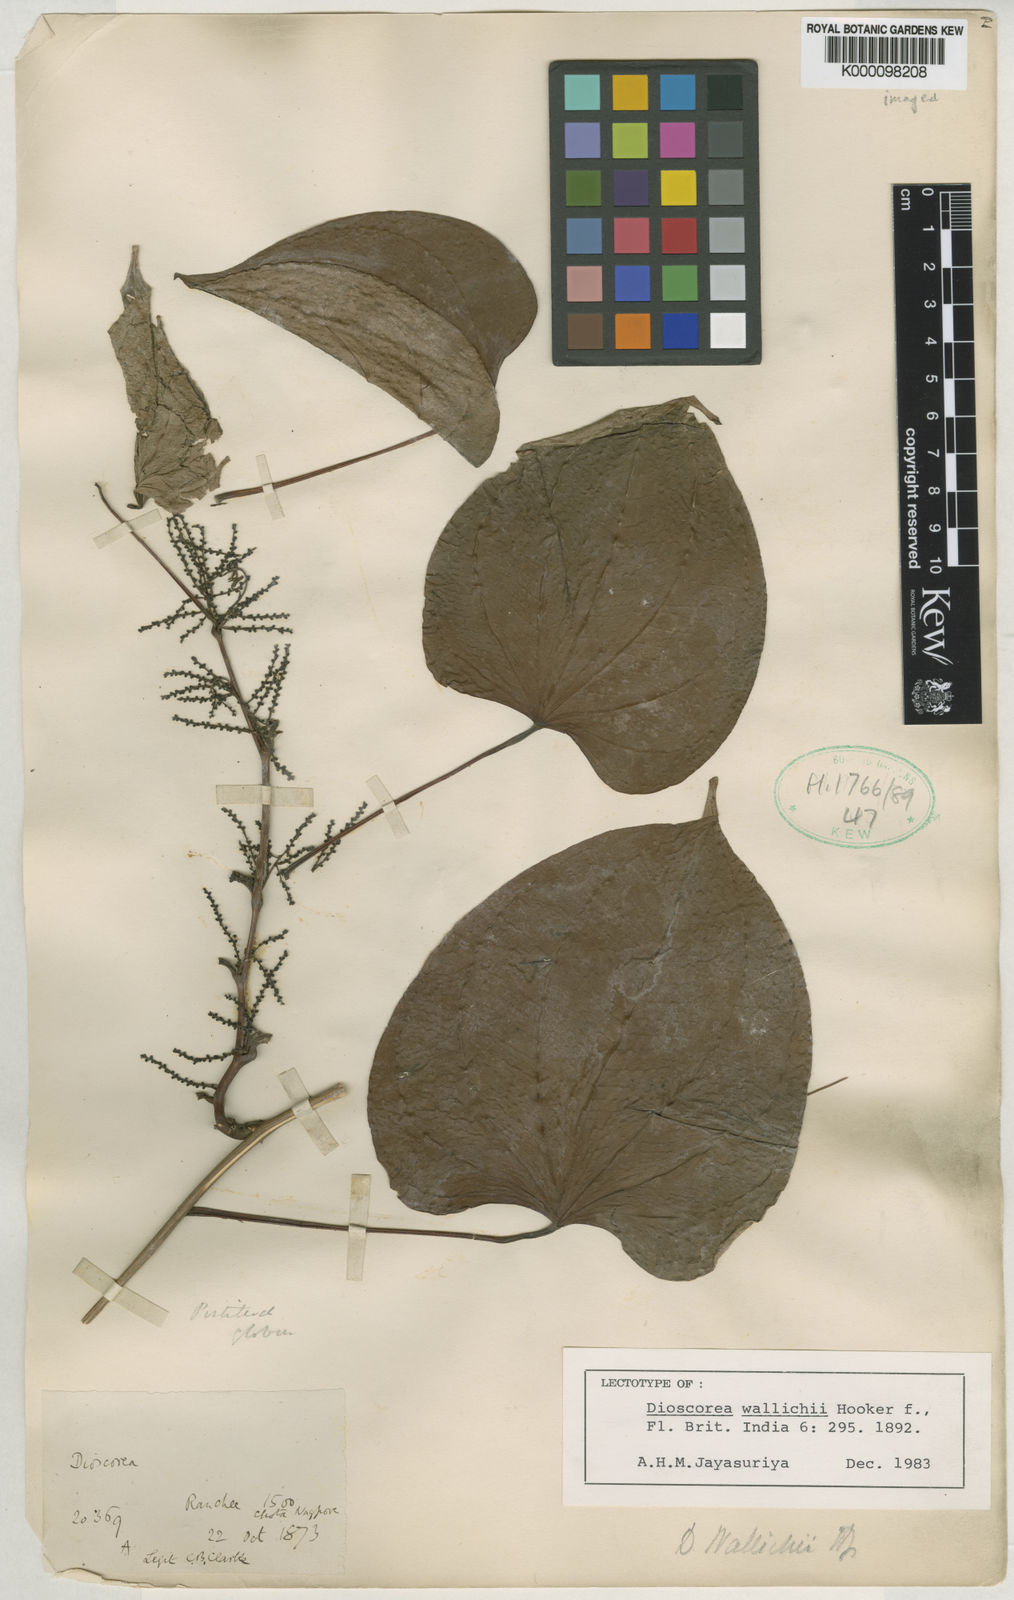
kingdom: Plantae
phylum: Tracheophyta
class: Liliopsida
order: Dioscoreales
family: Dioscoreaceae
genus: Dioscorea
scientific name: Dioscorea wallichii
